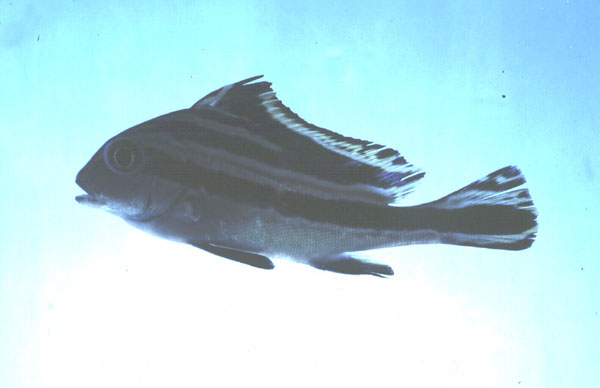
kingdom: Animalia
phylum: Chordata
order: Perciformes
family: Haemulidae
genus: Diagramma
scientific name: Diagramma pictum
